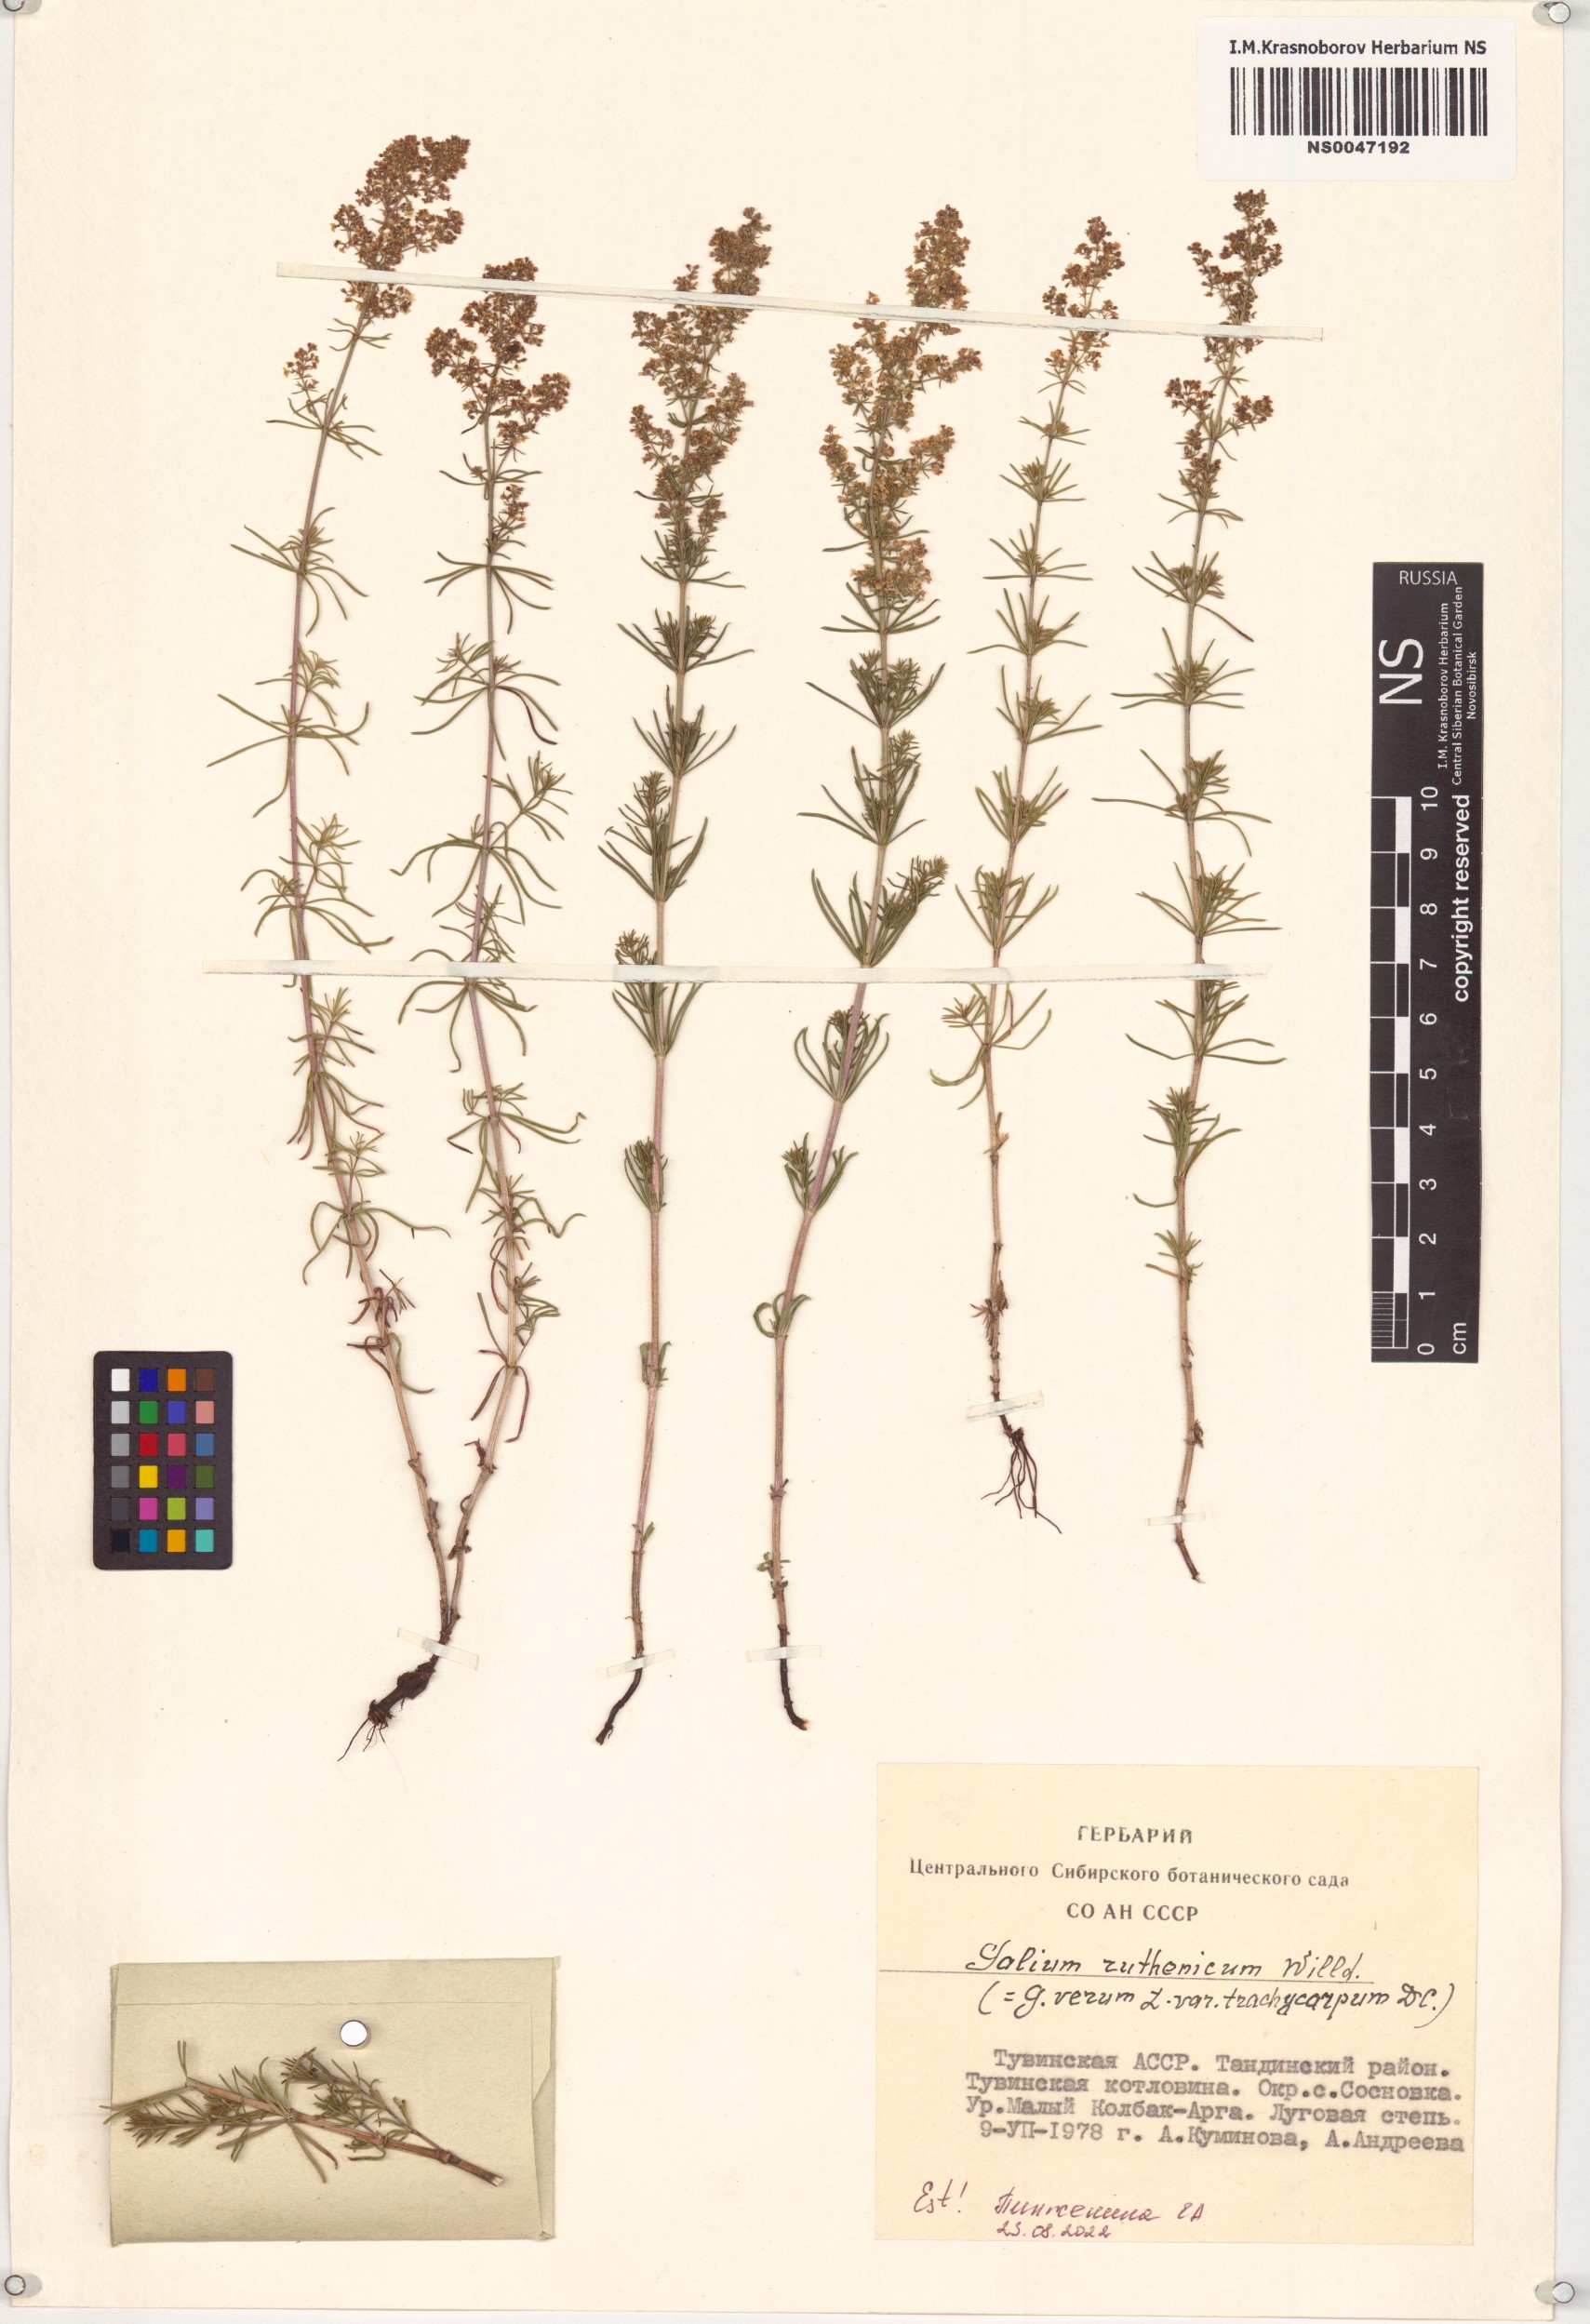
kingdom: Plantae
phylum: Tracheophyta
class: Magnoliopsida
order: Gentianales
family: Rubiaceae
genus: Galium
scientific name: Galium verum
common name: Lady's bedstraw
